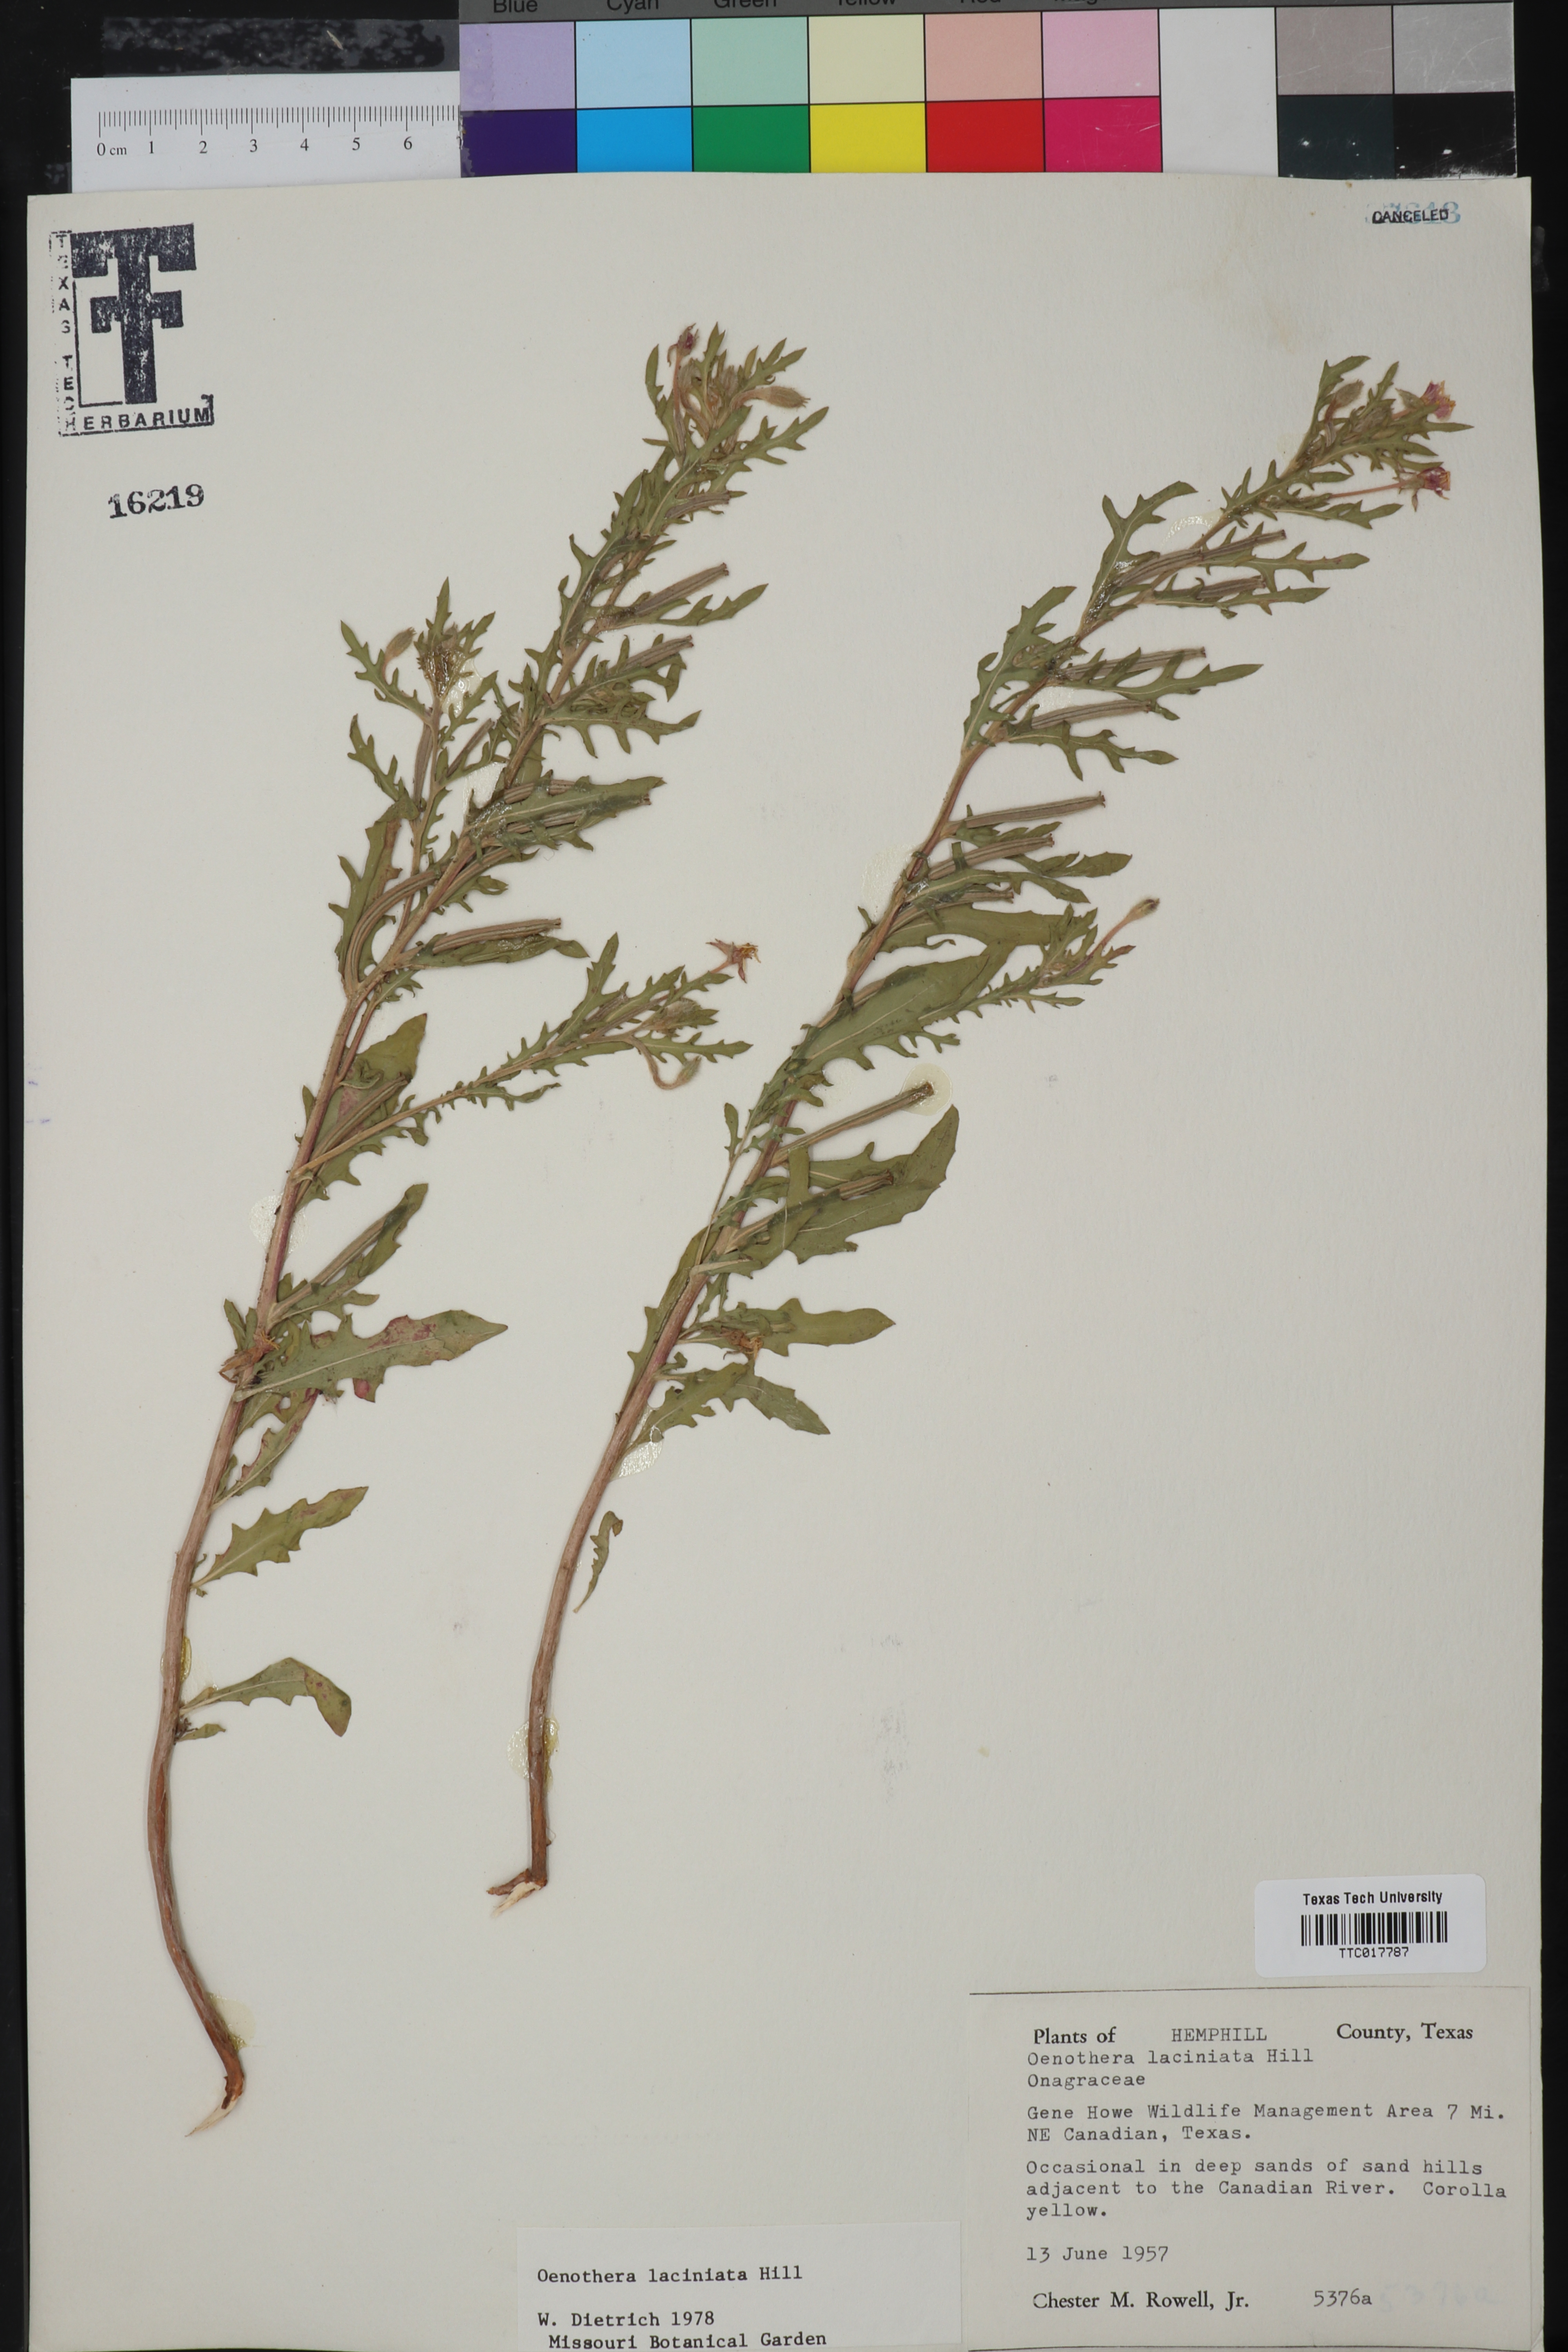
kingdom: Plantae
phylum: Tracheophyta
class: Magnoliopsida
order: Myrtales
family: Onagraceae
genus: Oenothera
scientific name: Oenothera laciniata
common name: Cut-leaved evening-primrose
